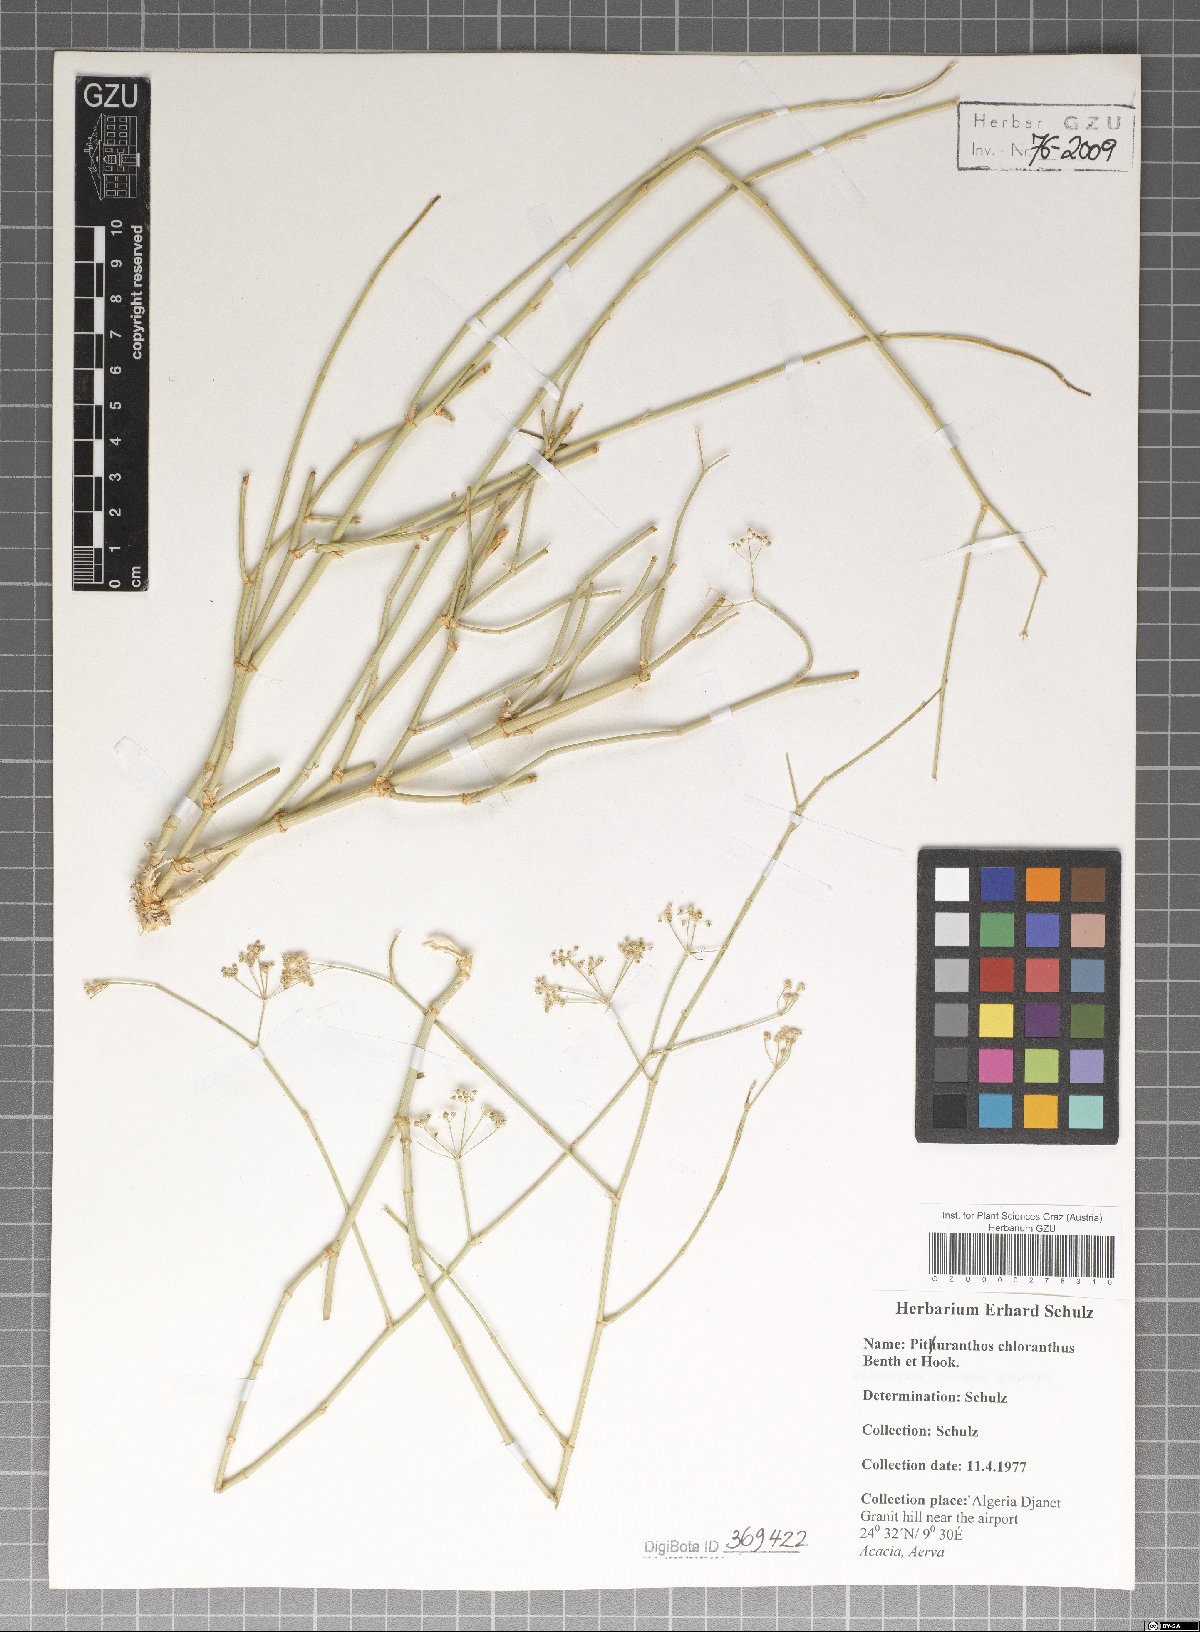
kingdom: Plantae
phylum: Tracheophyta
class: Magnoliopsida
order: Apiales
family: Apiaceae
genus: Deverra
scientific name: Deverra denudata
